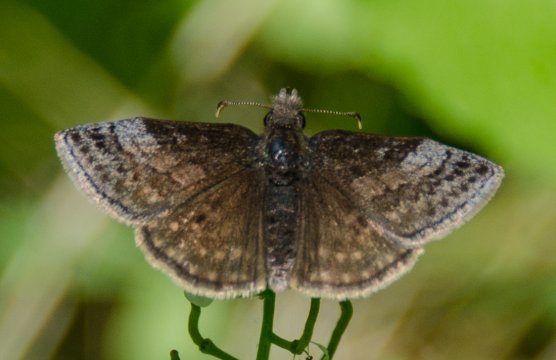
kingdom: Animalia
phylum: Arthropoda
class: Insecta
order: Lepidoptera
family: Hesperiidae
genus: Erynnis
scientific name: Erynnis icelus
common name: Dreamy Duskywing
